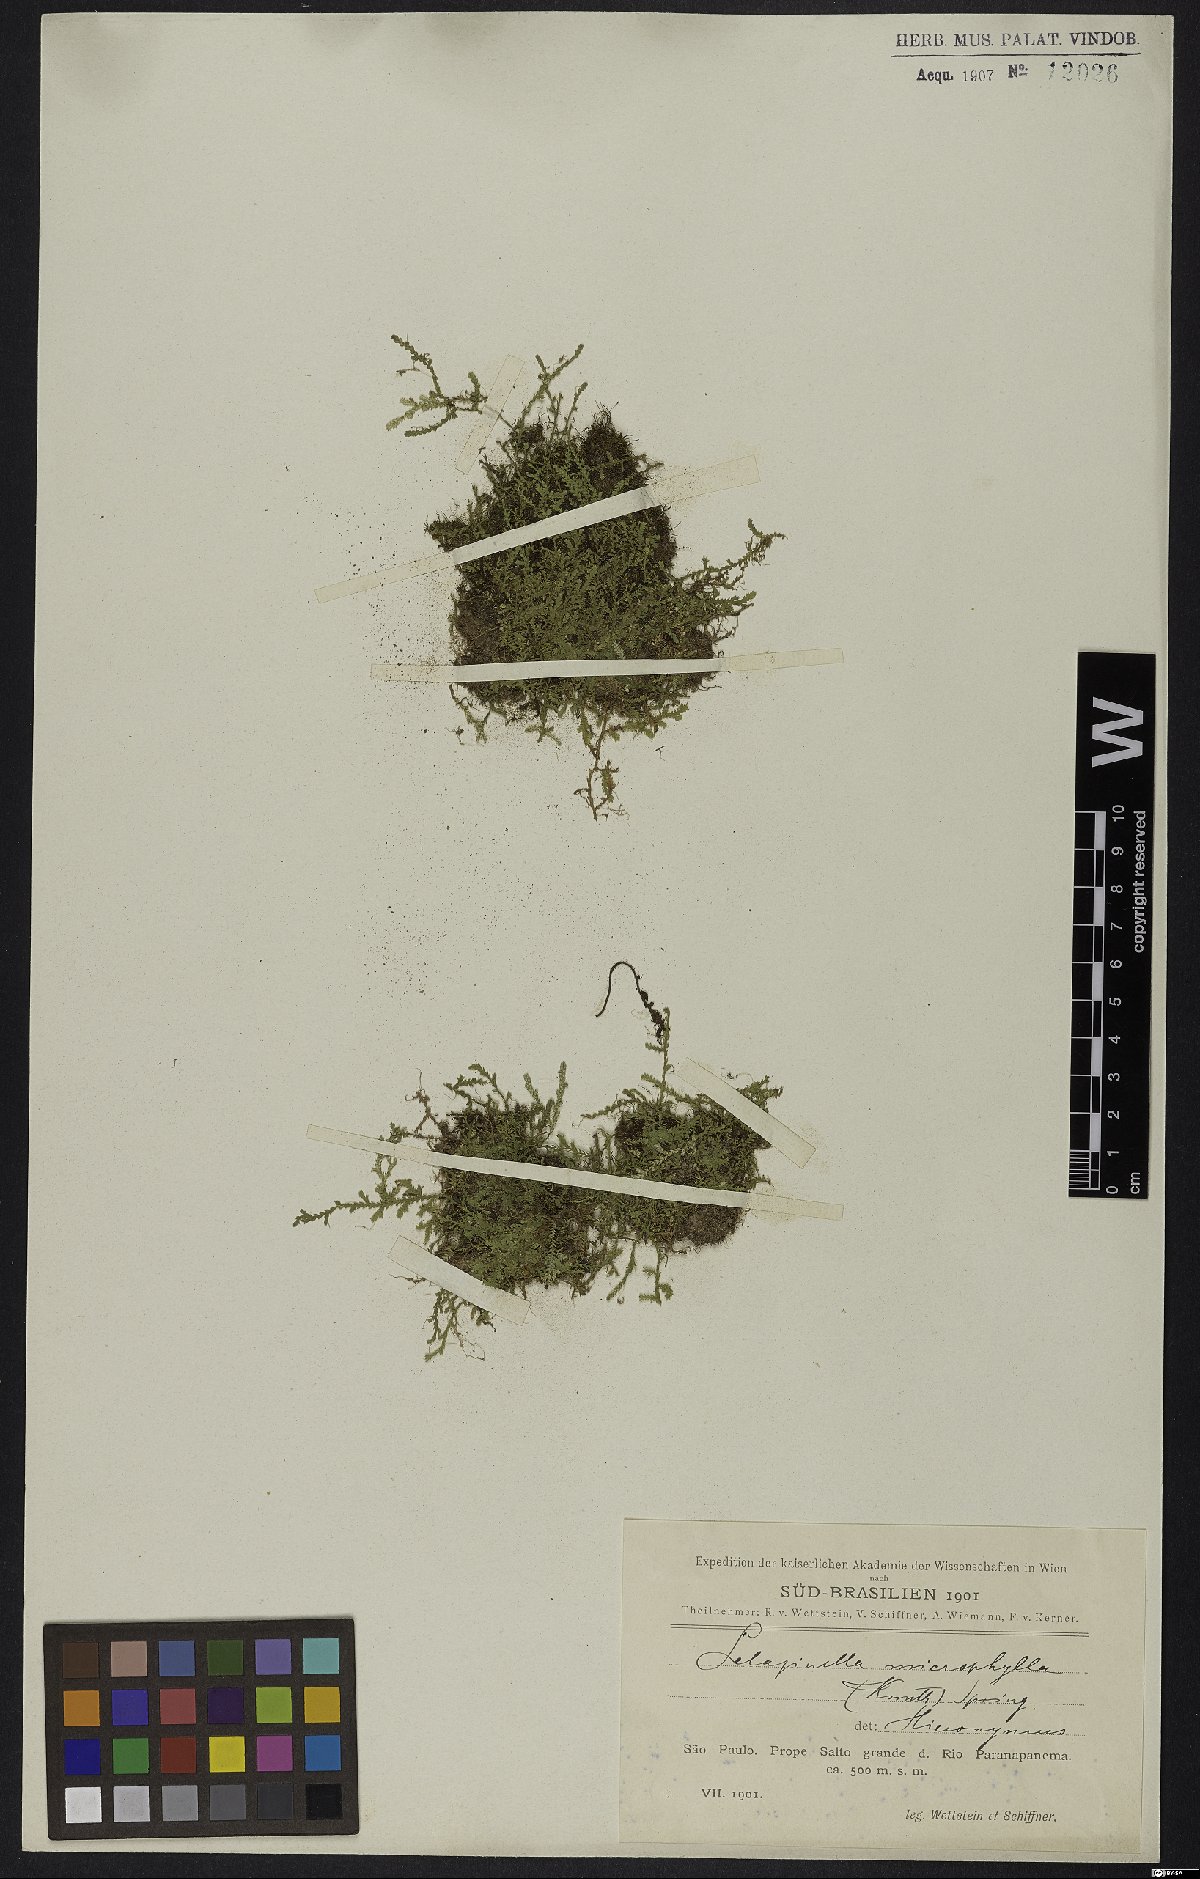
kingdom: Plantae
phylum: Tracheophyta
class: Lycopodiopsida
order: Selaginellales
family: Selaginellaceae
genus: Selaginella
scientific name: Selaginella microphylla
